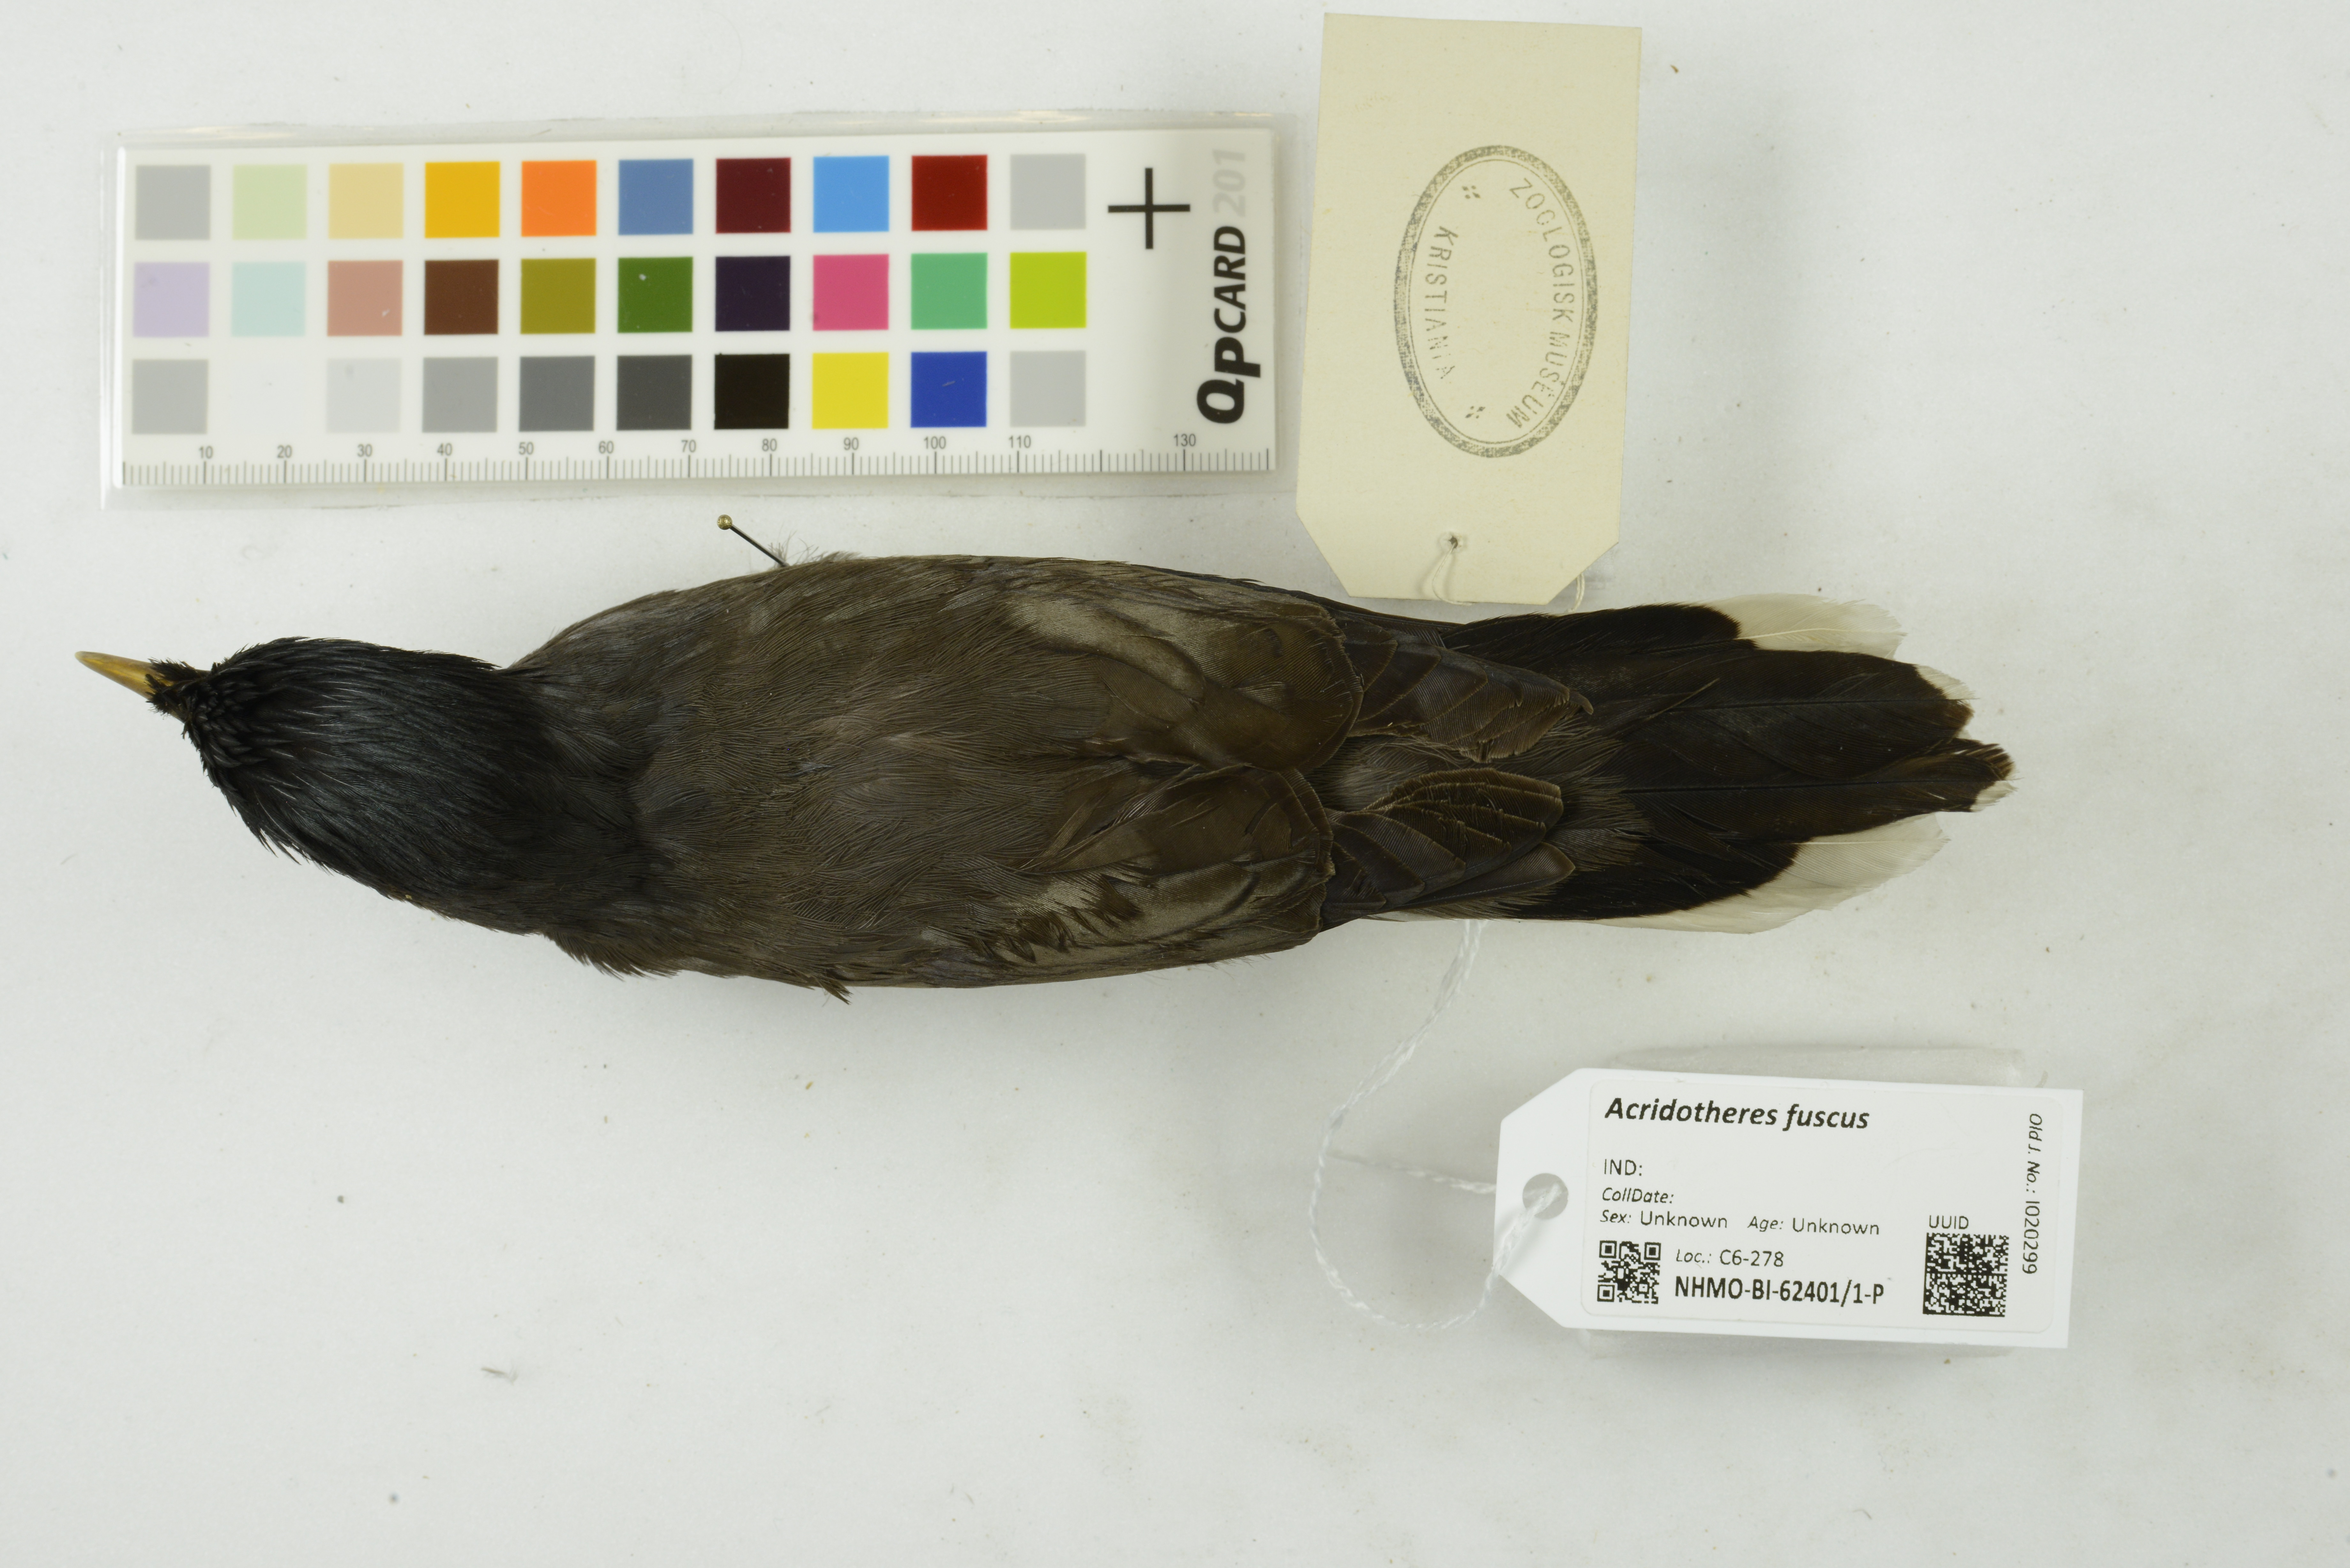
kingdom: Animalia
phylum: Chordata
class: Aves
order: Passeriformes
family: Sturnidae
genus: Acridotheres
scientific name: Acridotheres fuscus
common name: Jungle myna
